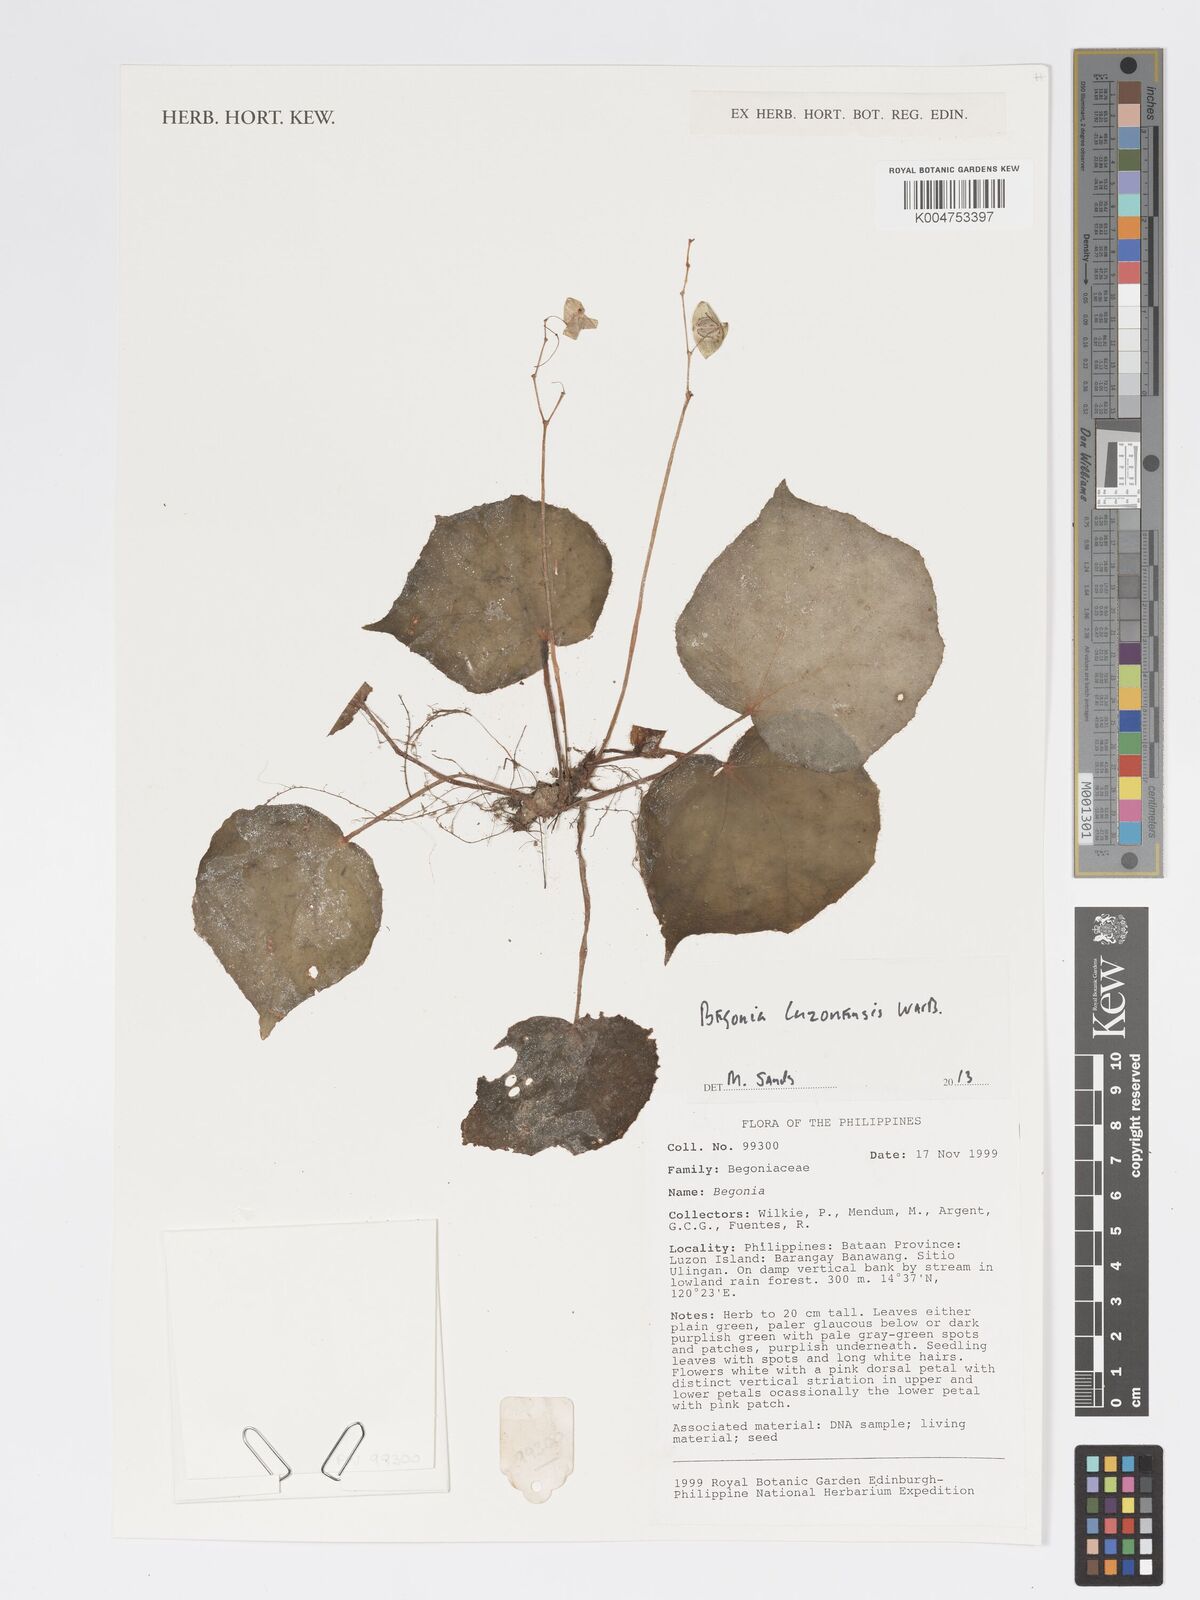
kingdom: Plantae
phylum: Tracheophyta
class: Magnoliopsida
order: Cucurbitales
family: Begoniaceae
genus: Begonia
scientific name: Begonia luzonensis
